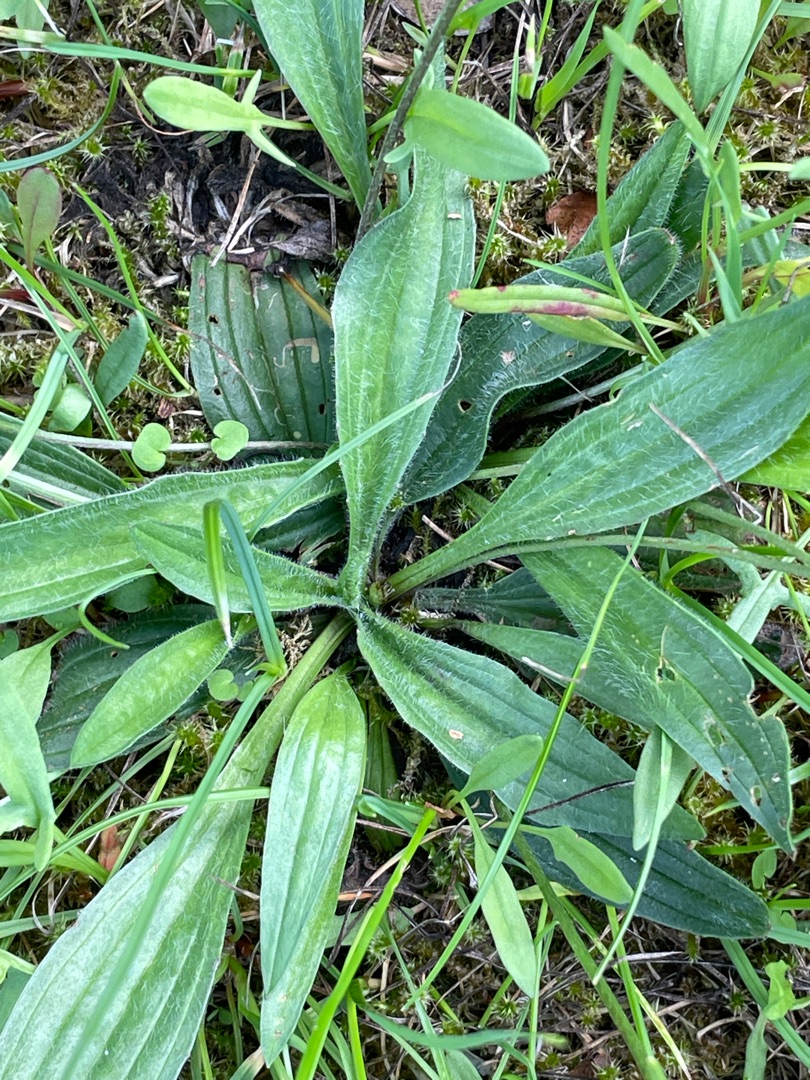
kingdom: Plantae
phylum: Tracheophyta
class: Magnoliopsida
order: Lamiales
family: Plantaginaceae
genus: Plantago
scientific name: Plantago lanceolata
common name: Lancet-vejbred
